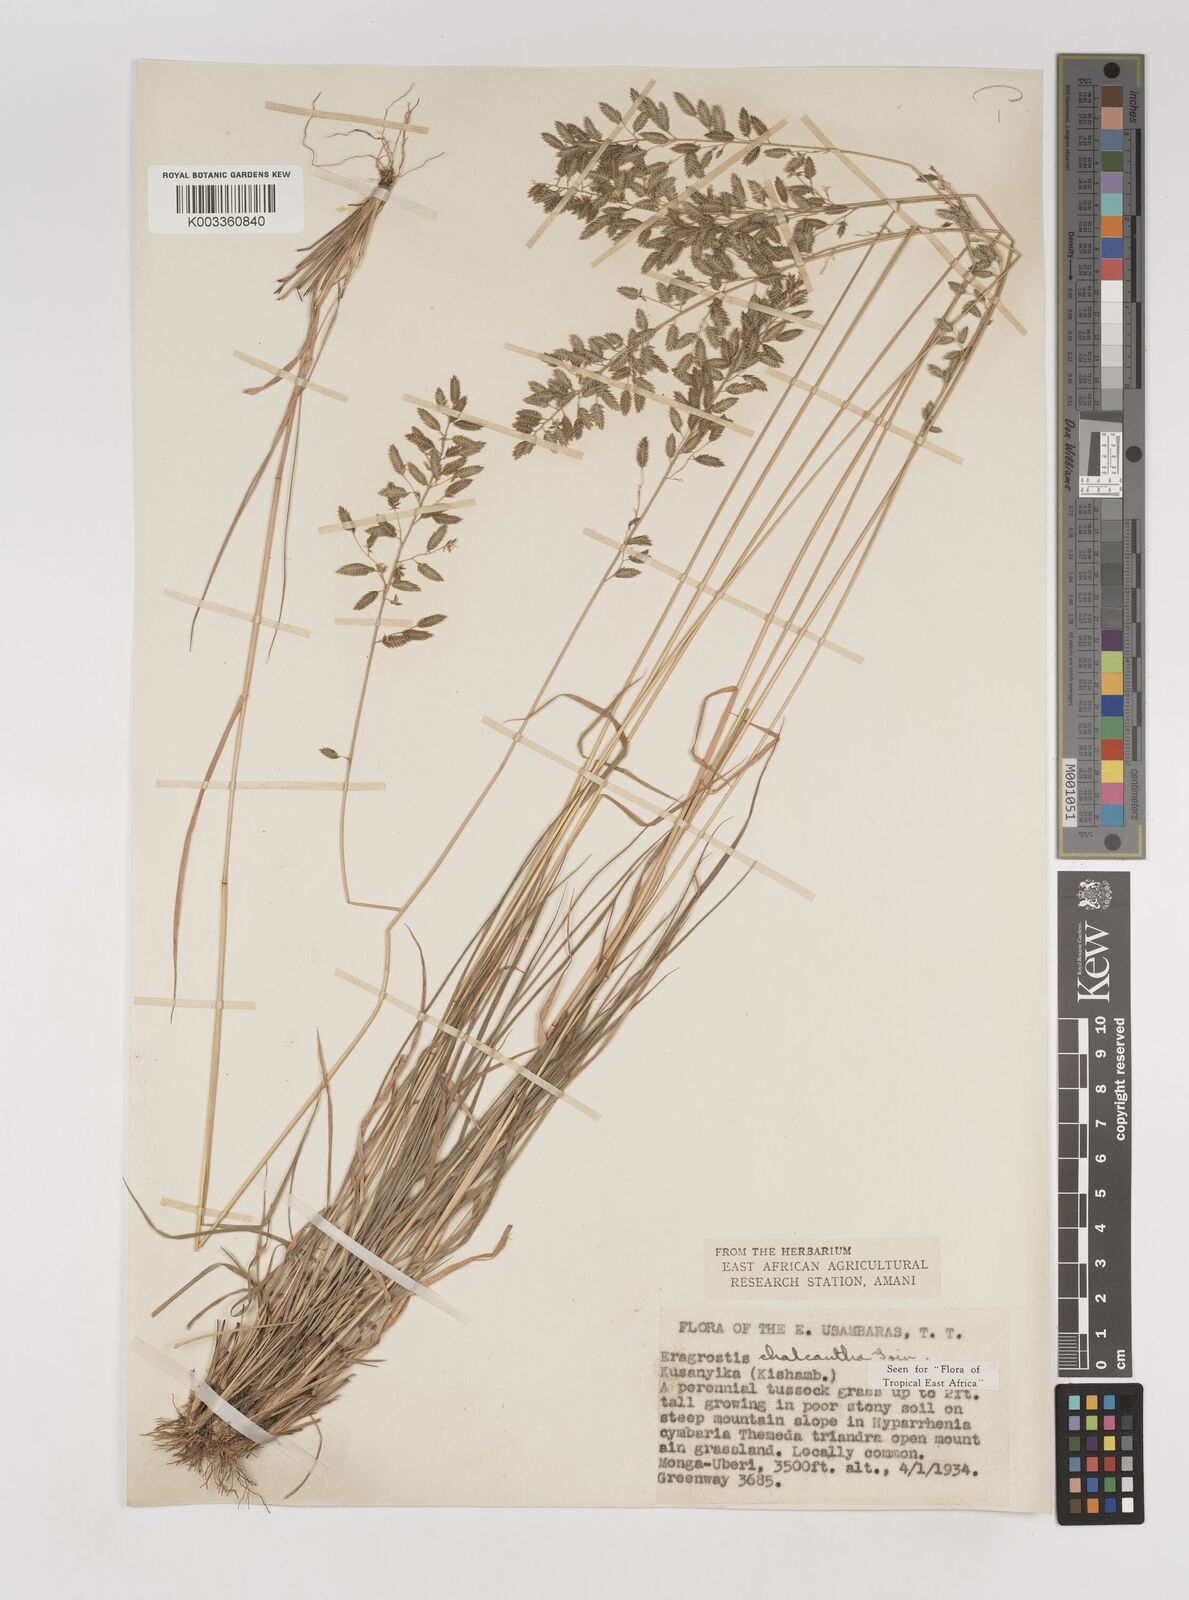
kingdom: Plantae
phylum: Tracheophyta
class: Liliopsida
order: Poales
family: Poaceae
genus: Eragrostis
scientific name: Eragrostis racemosa
